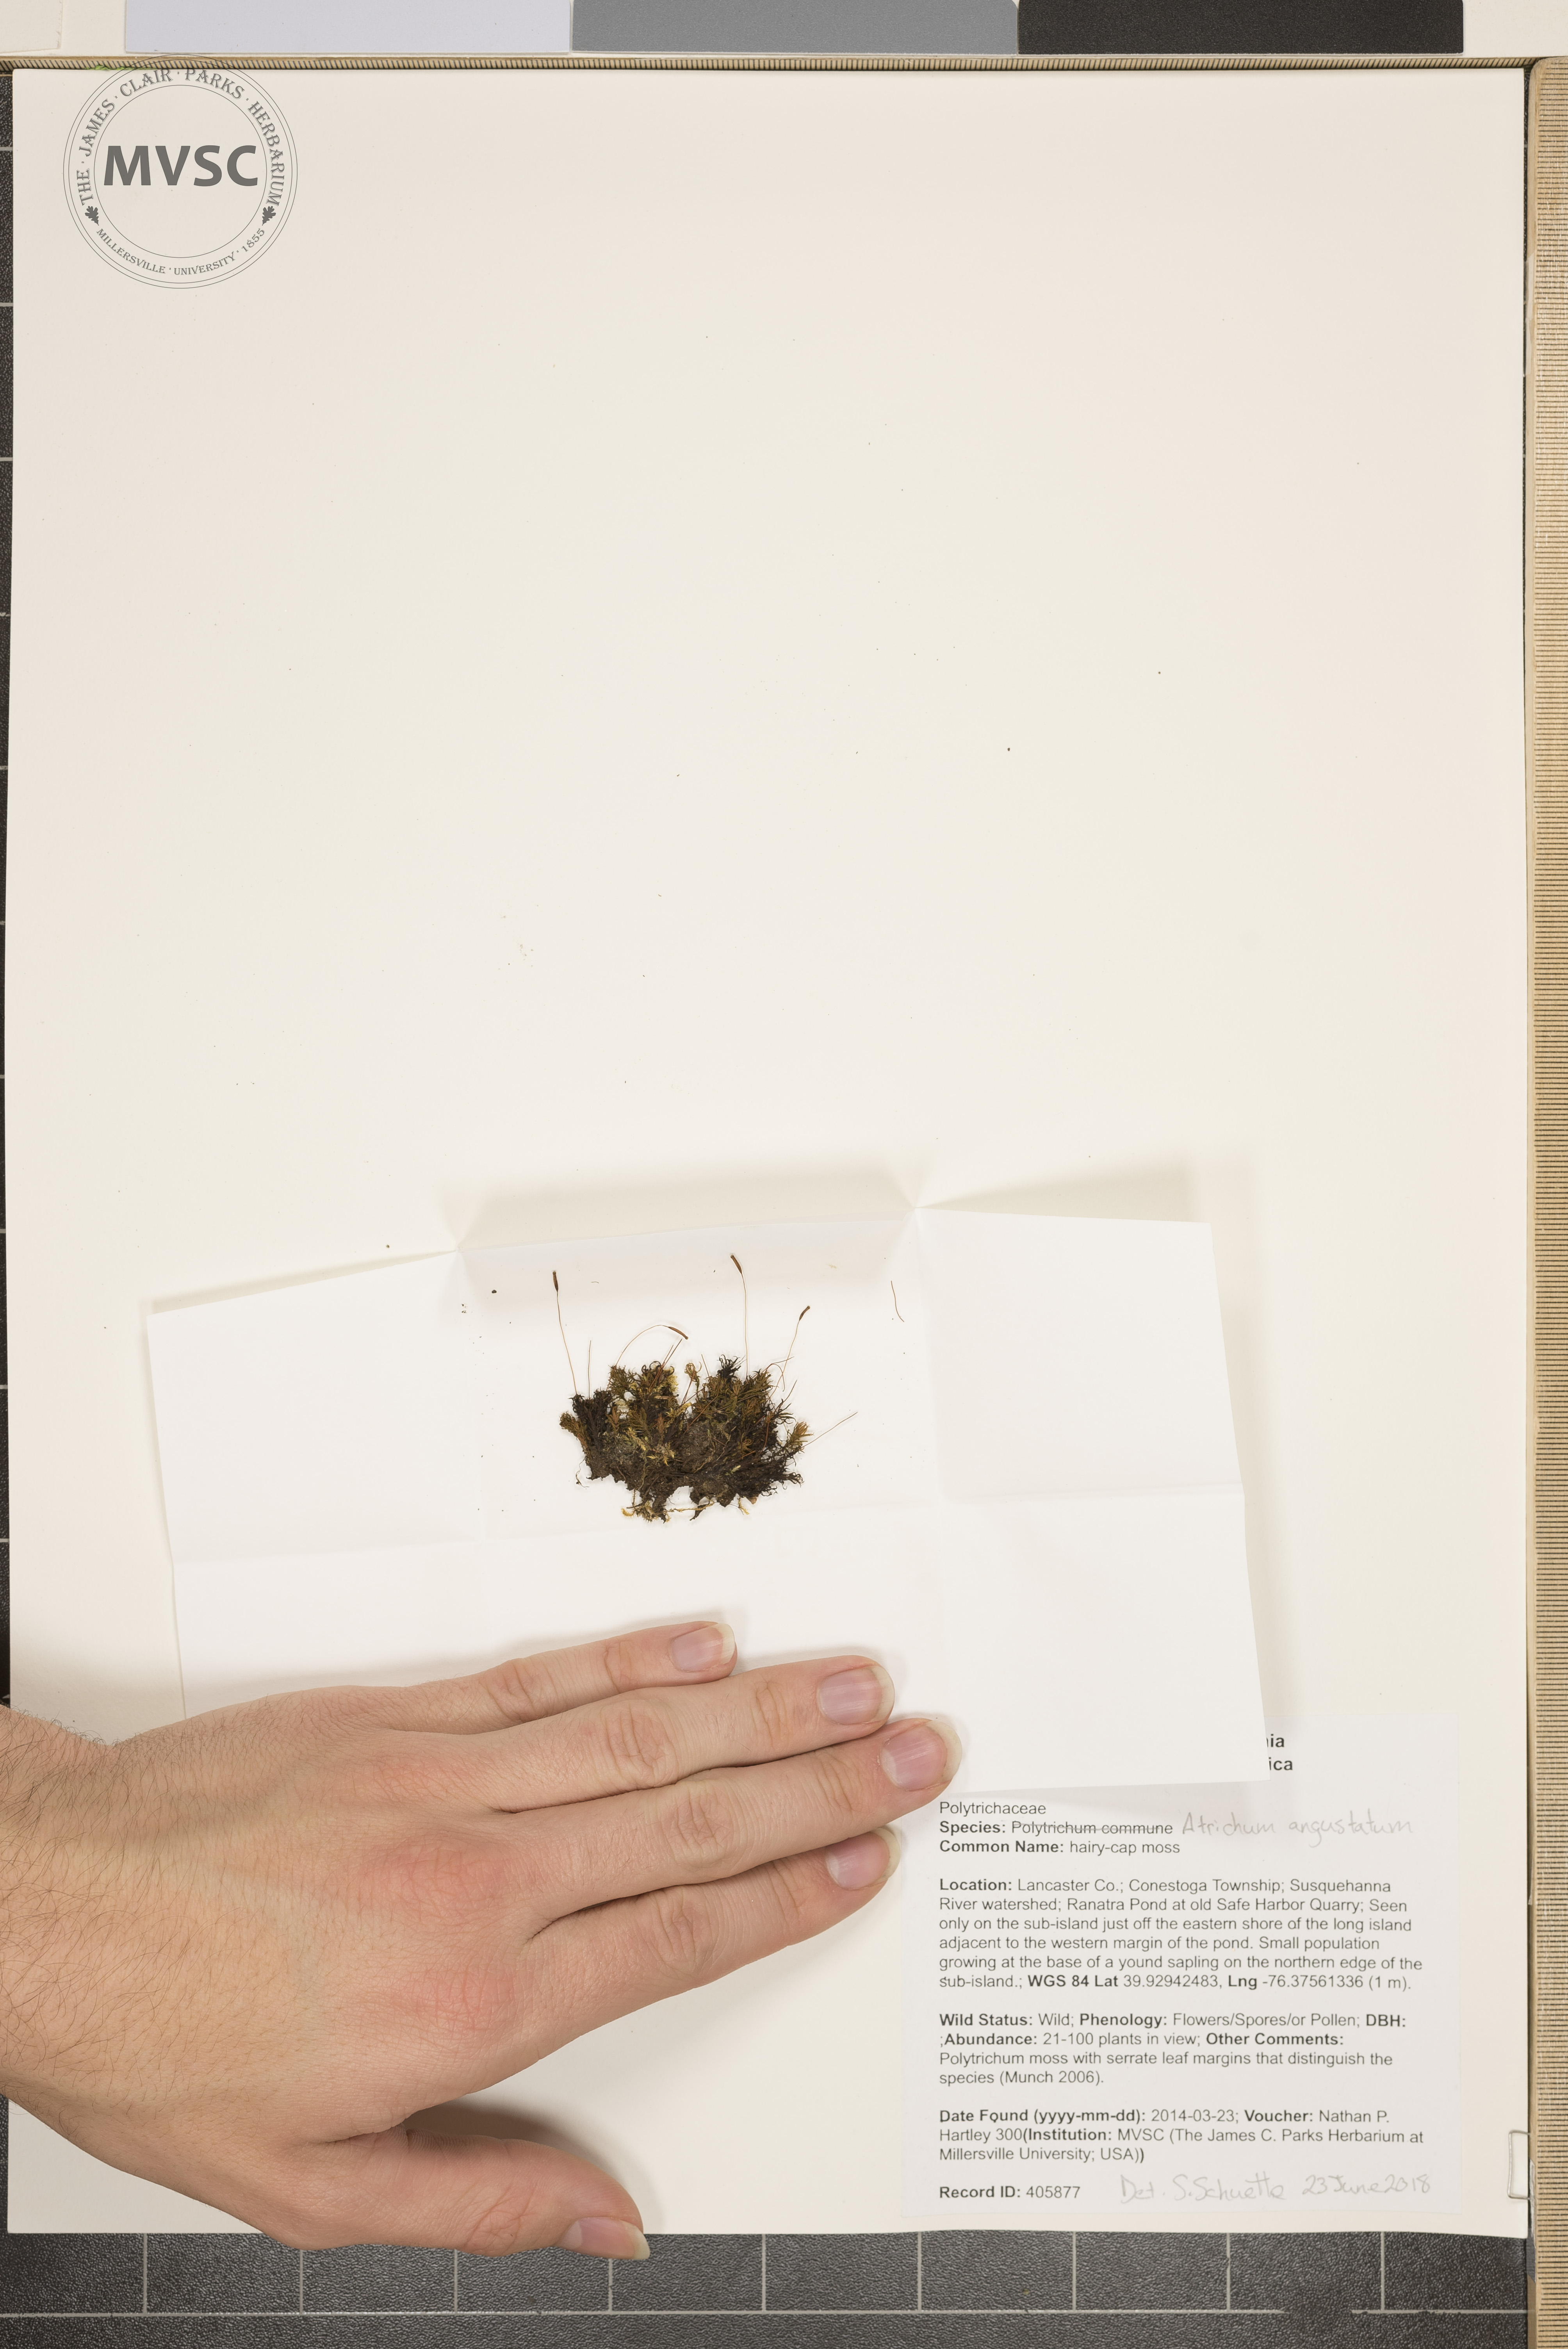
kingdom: Plantae
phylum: Bryophyta
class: Polytrichopsida
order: Polytrichales
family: Polytrichaceae
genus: Atrichum
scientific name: Atrichum angustatum
